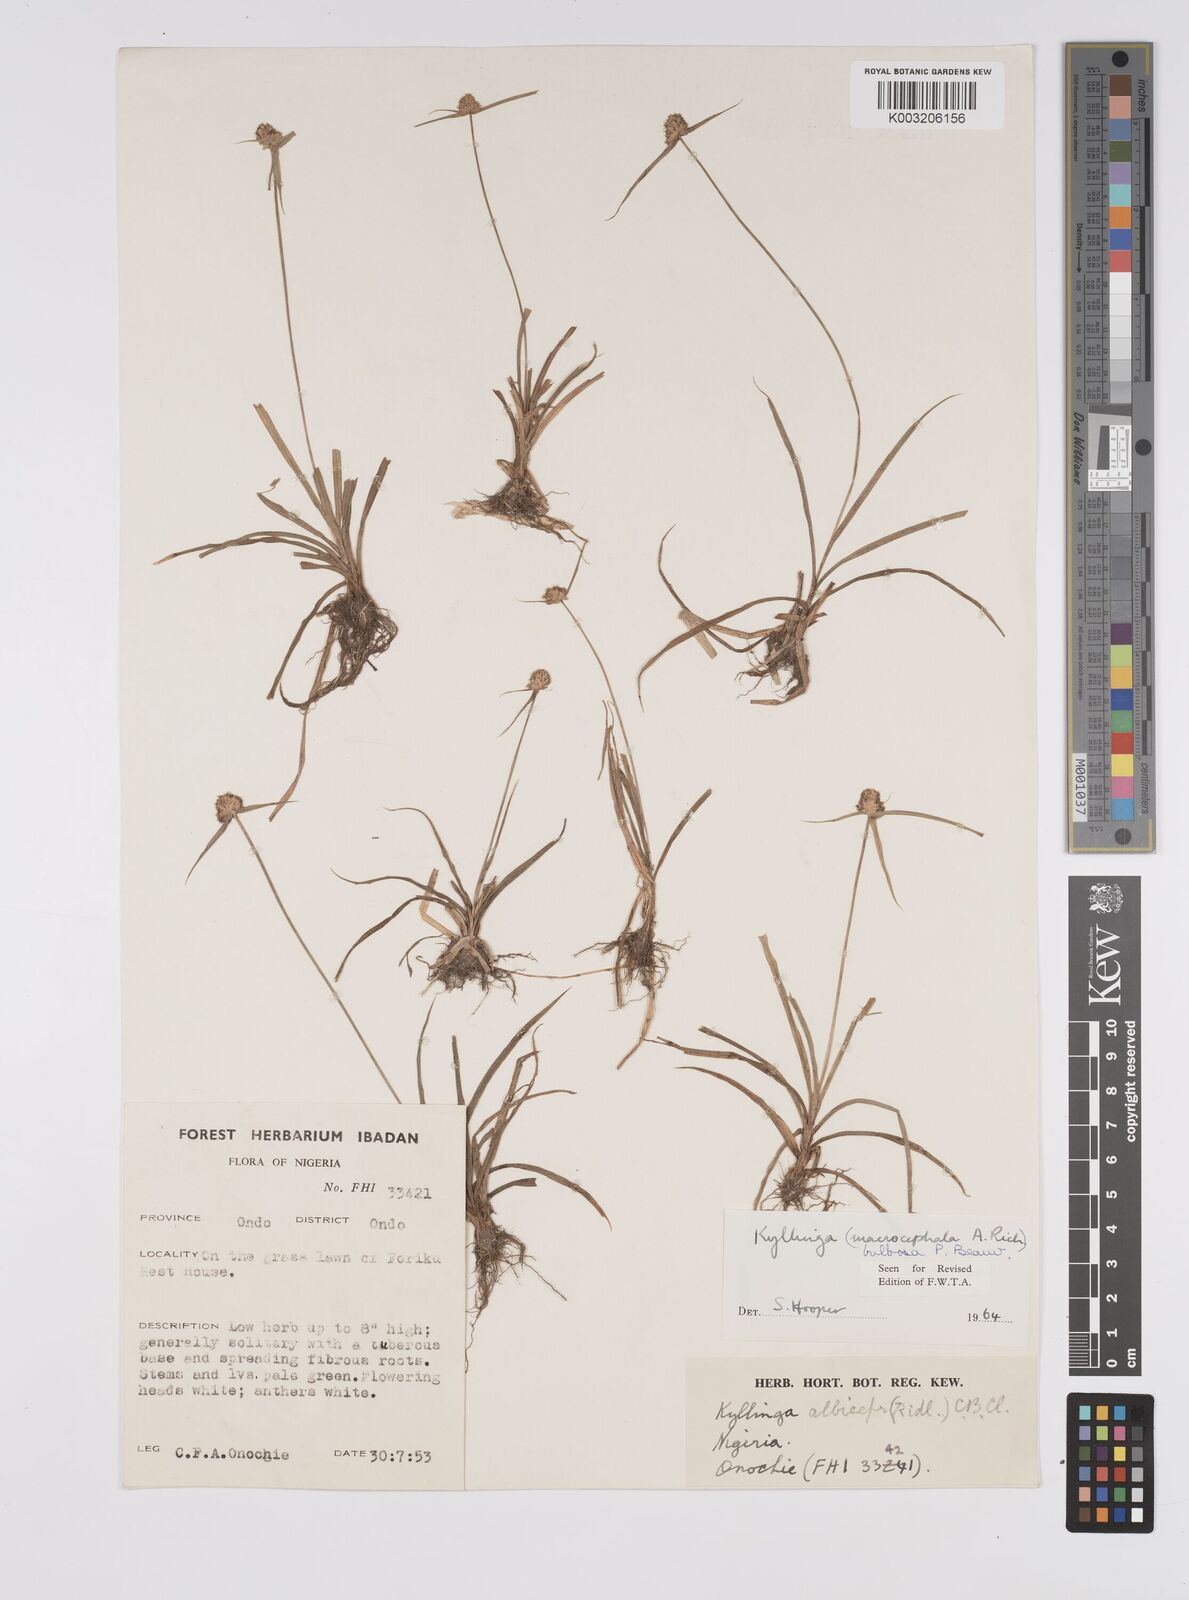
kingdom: Plantae
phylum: Tracheophyta
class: Liliopsida
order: Poales
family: Cyperaceae
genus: Cyperus
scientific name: Cyperus
